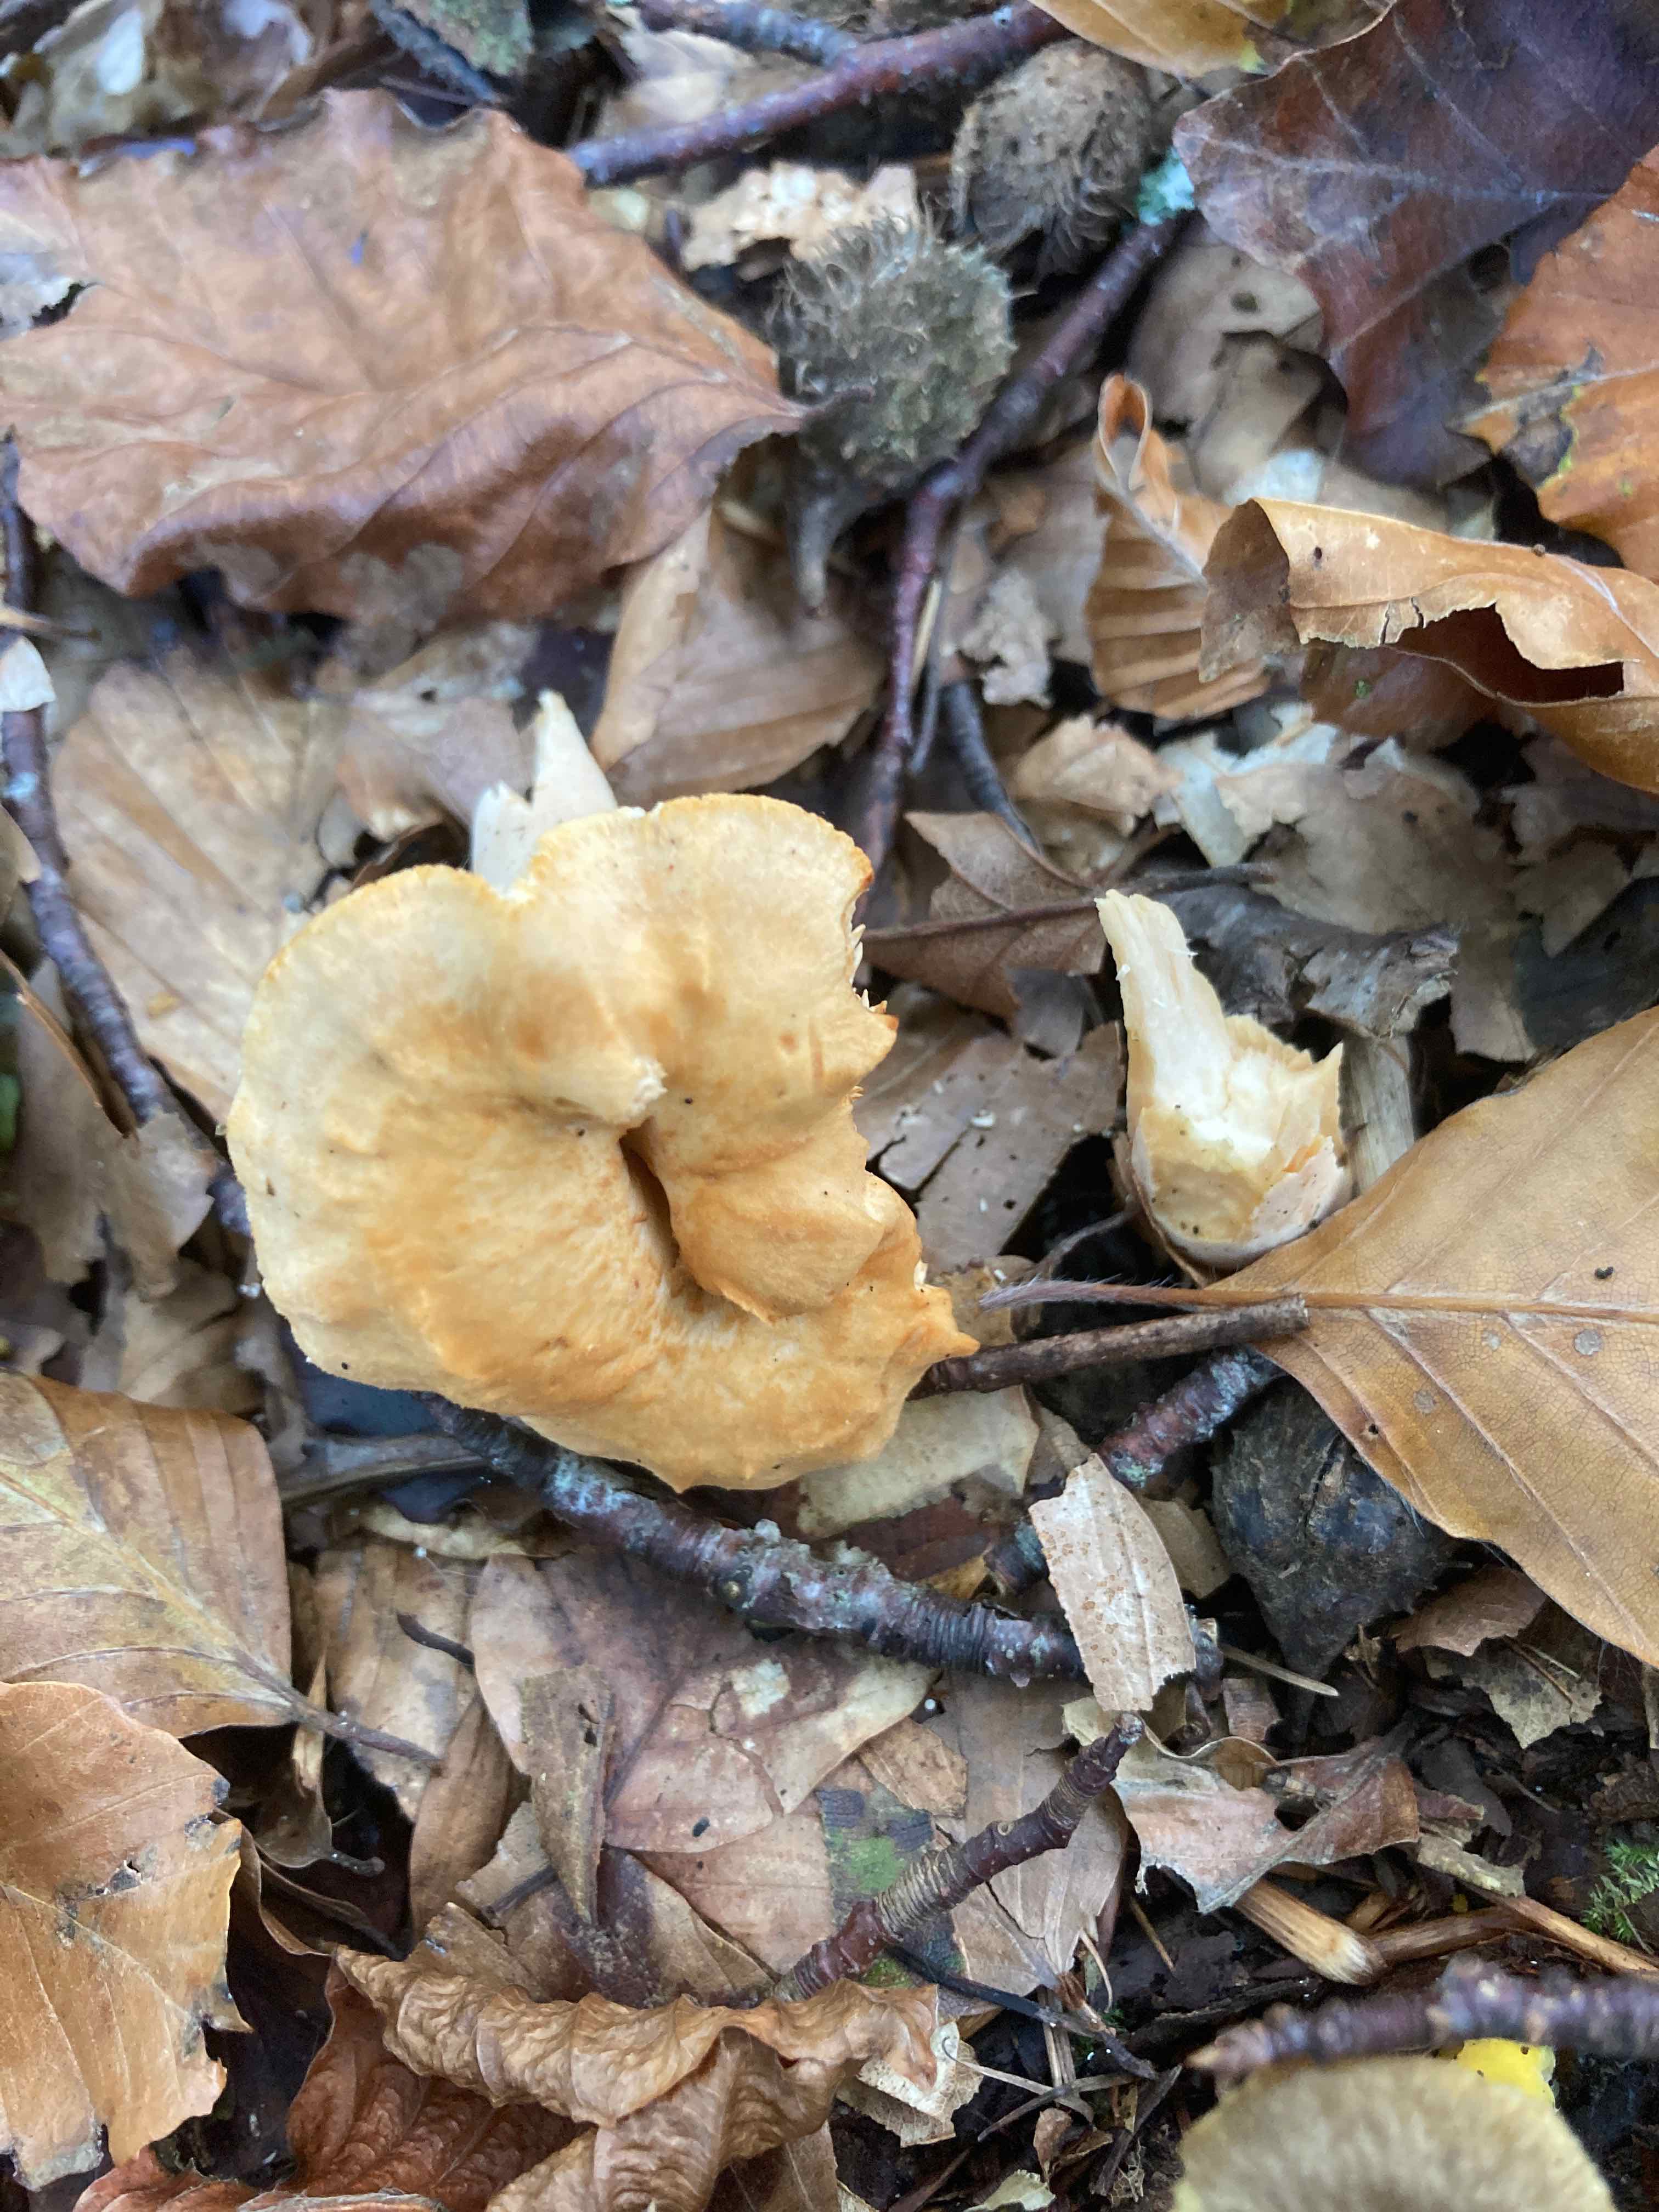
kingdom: Fungi
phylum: Basidiomycota
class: Agaricomycetes
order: Cantharellales
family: Hydnaceae
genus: Hydnum
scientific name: Hydnum
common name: pigsvamp
